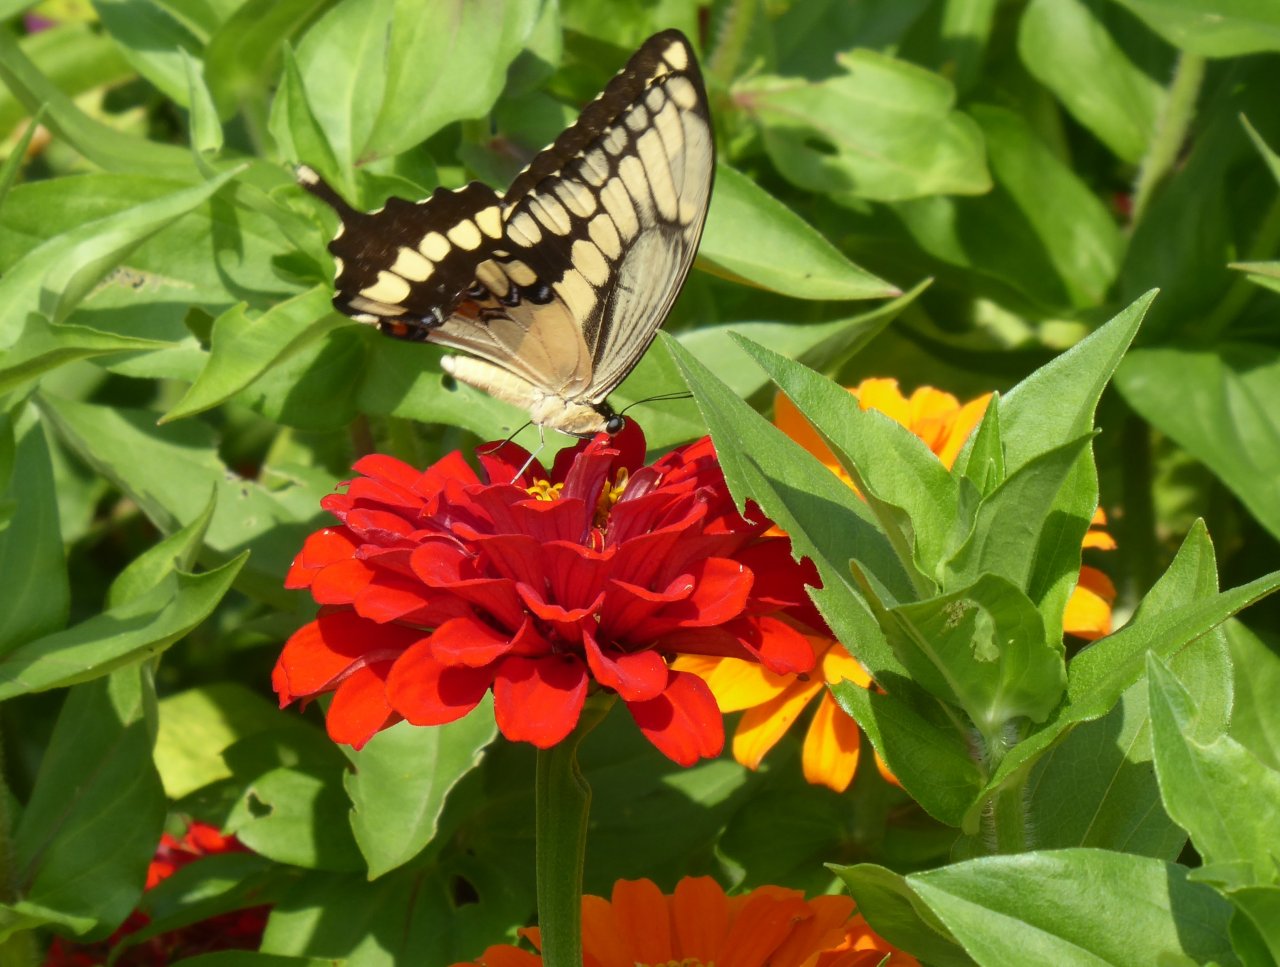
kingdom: Animalia
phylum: Arthropoda
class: Insecta
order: Lepidoptera
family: Papilionidae
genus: Papilio
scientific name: Papilio cresphontes
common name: Eastern Giant Swallowtail
